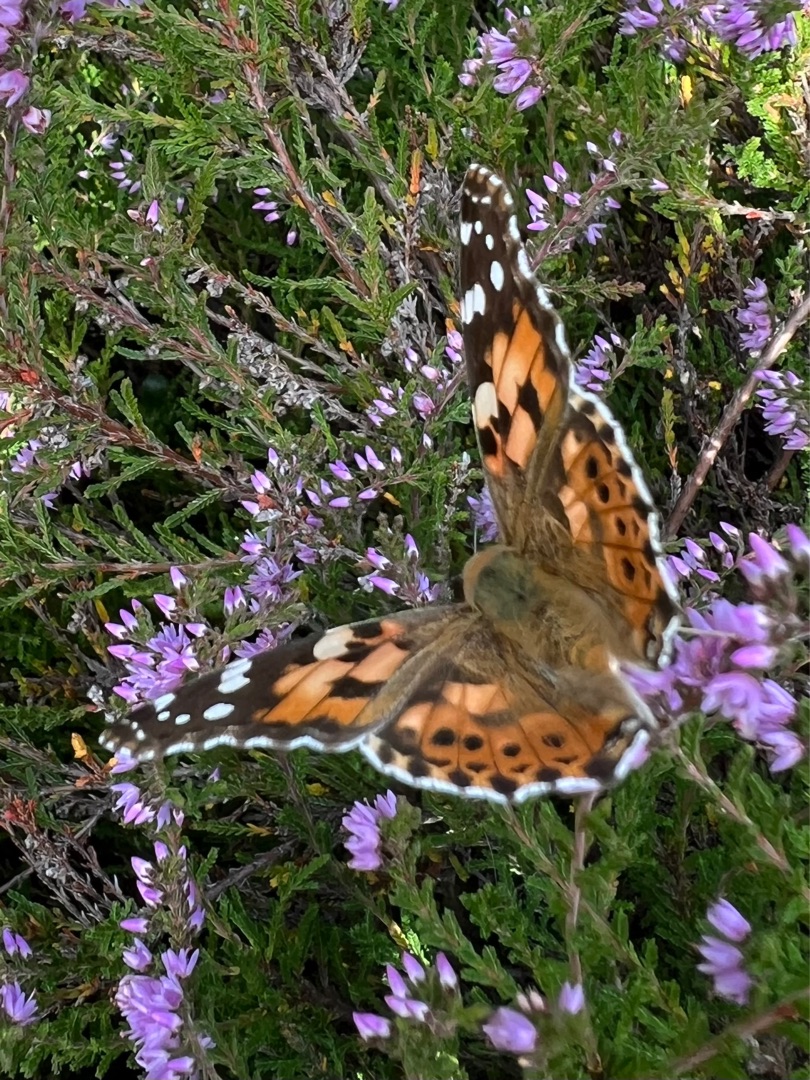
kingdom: Animalia
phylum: Arthropoda
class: Insecta
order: Lepidoptera
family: Nymphalidae
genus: Vanessa
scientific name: Vanessa cardui
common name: Tidselsommerfugl
